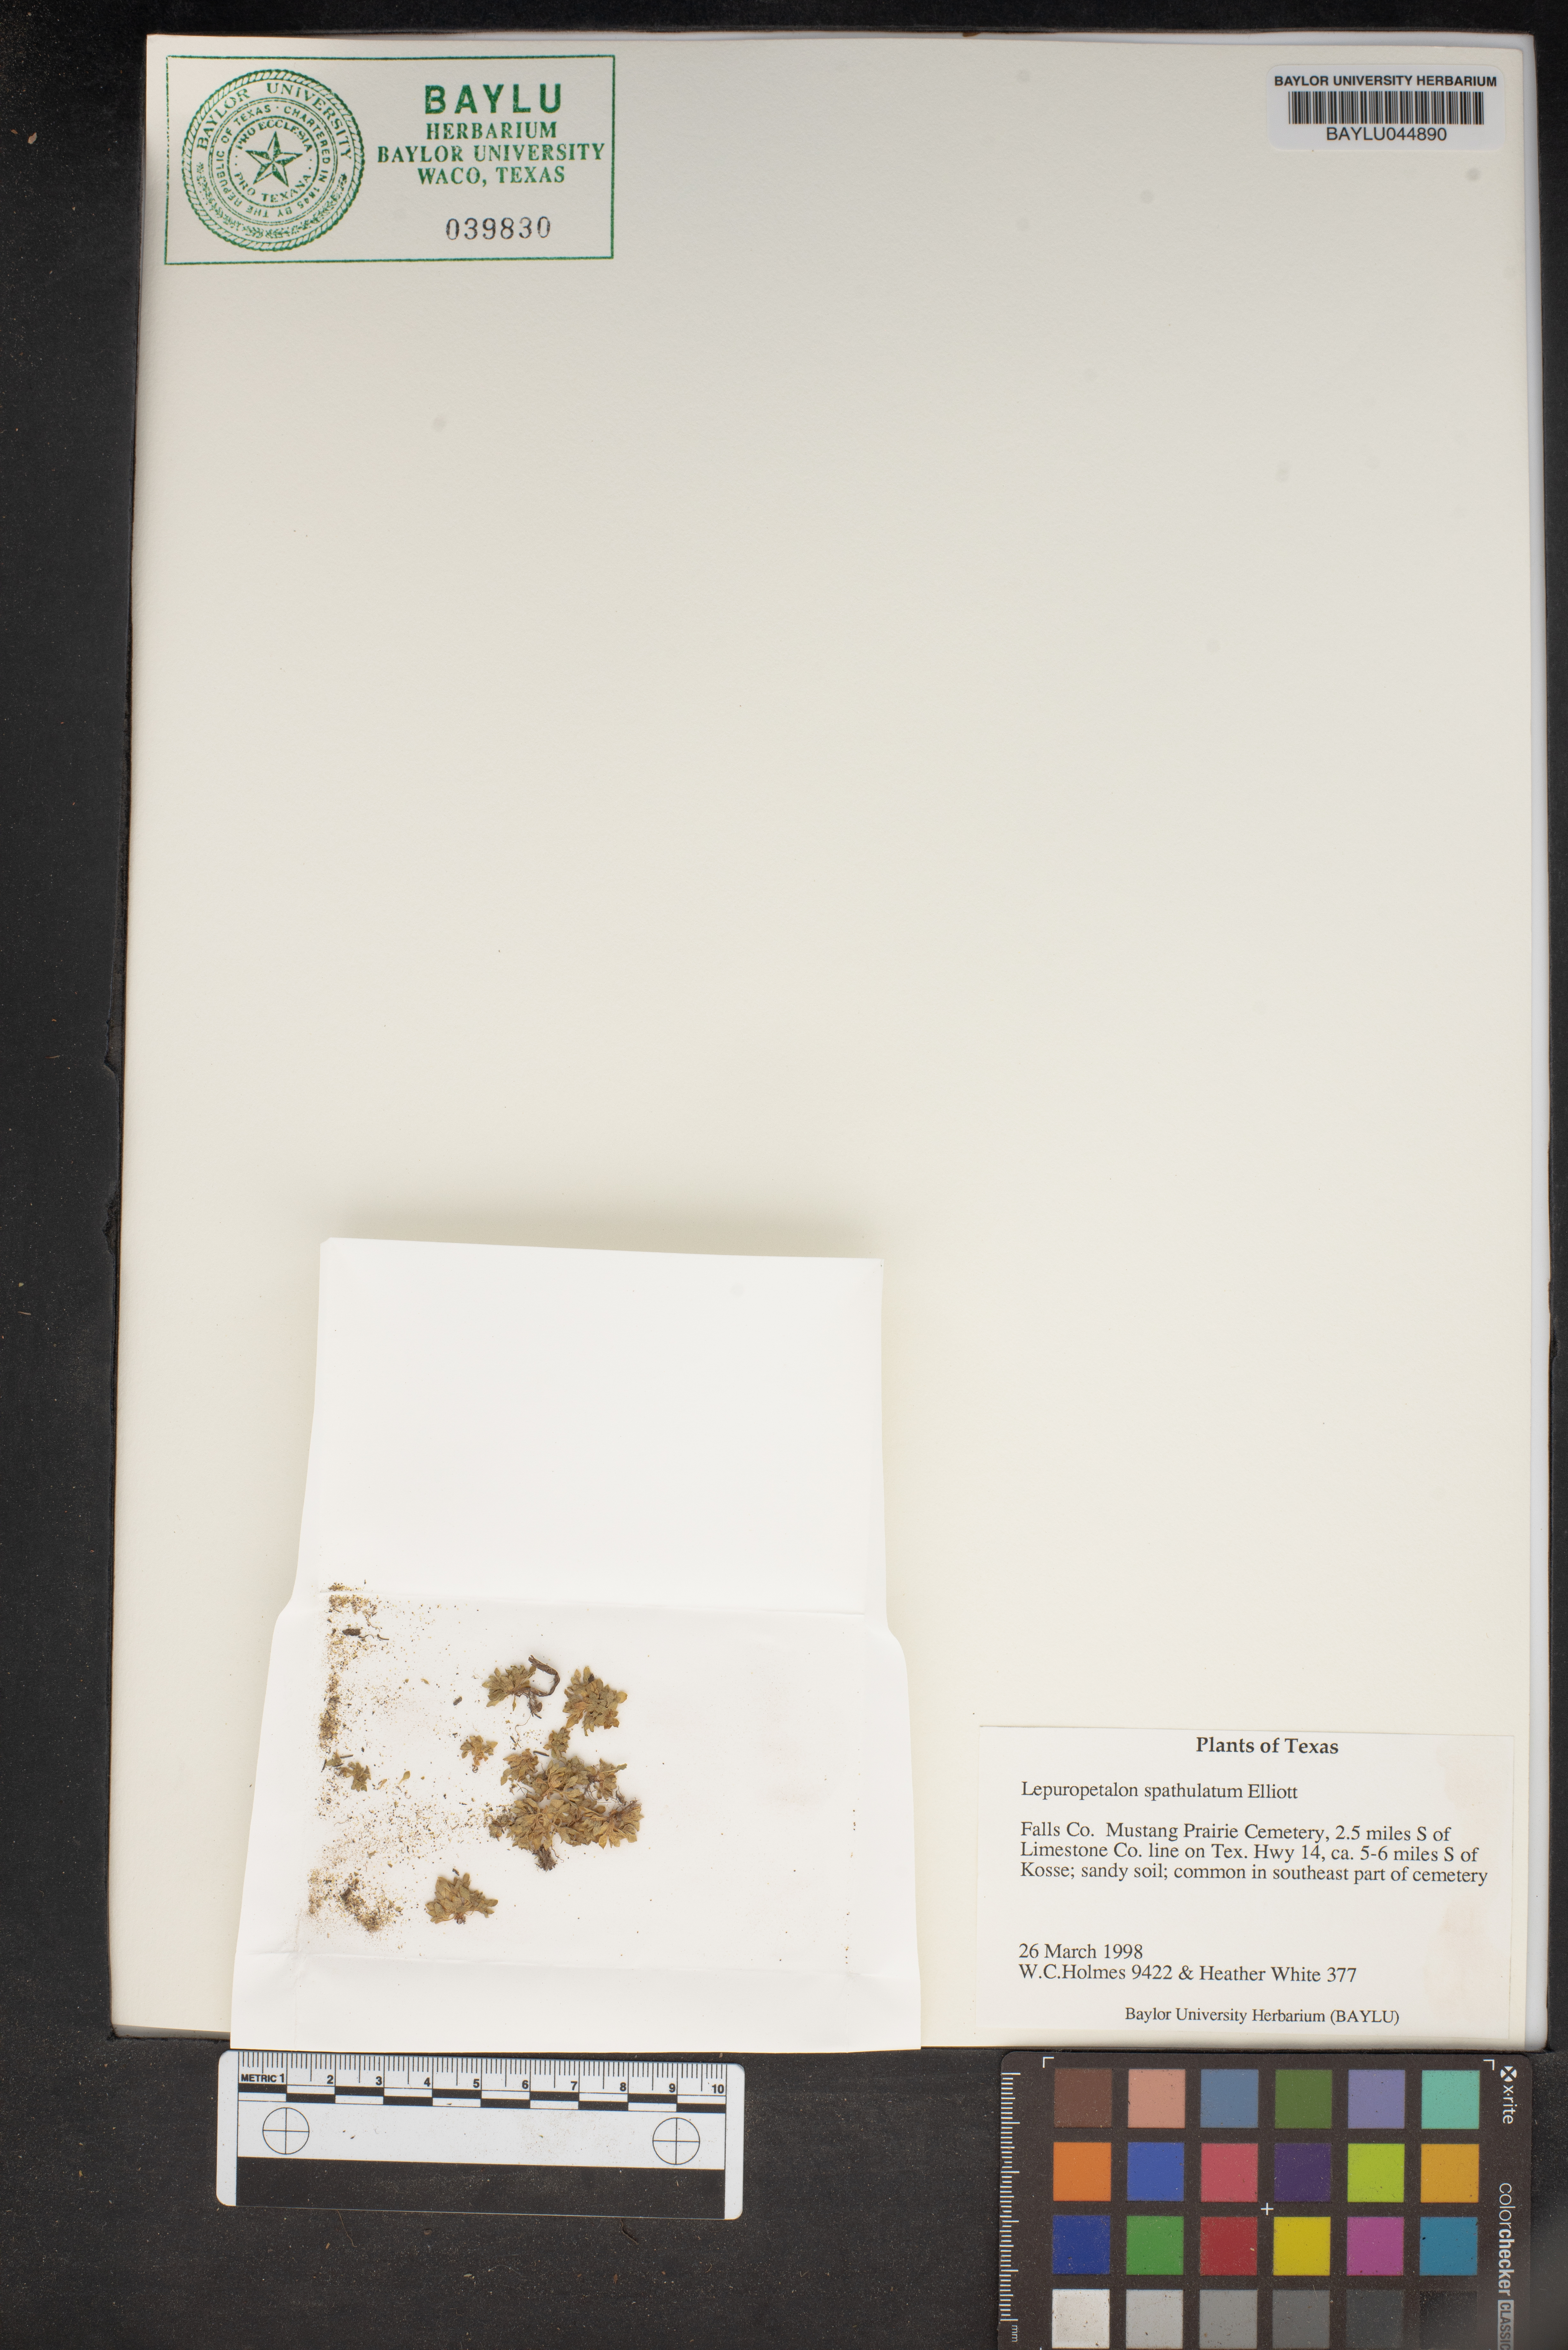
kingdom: Plantae
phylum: Tracheophyta
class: Magnoliopsida
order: Celastrales
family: Parnassiaceae
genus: Lepuropetalon
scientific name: Lepuropetalon spathulatum
